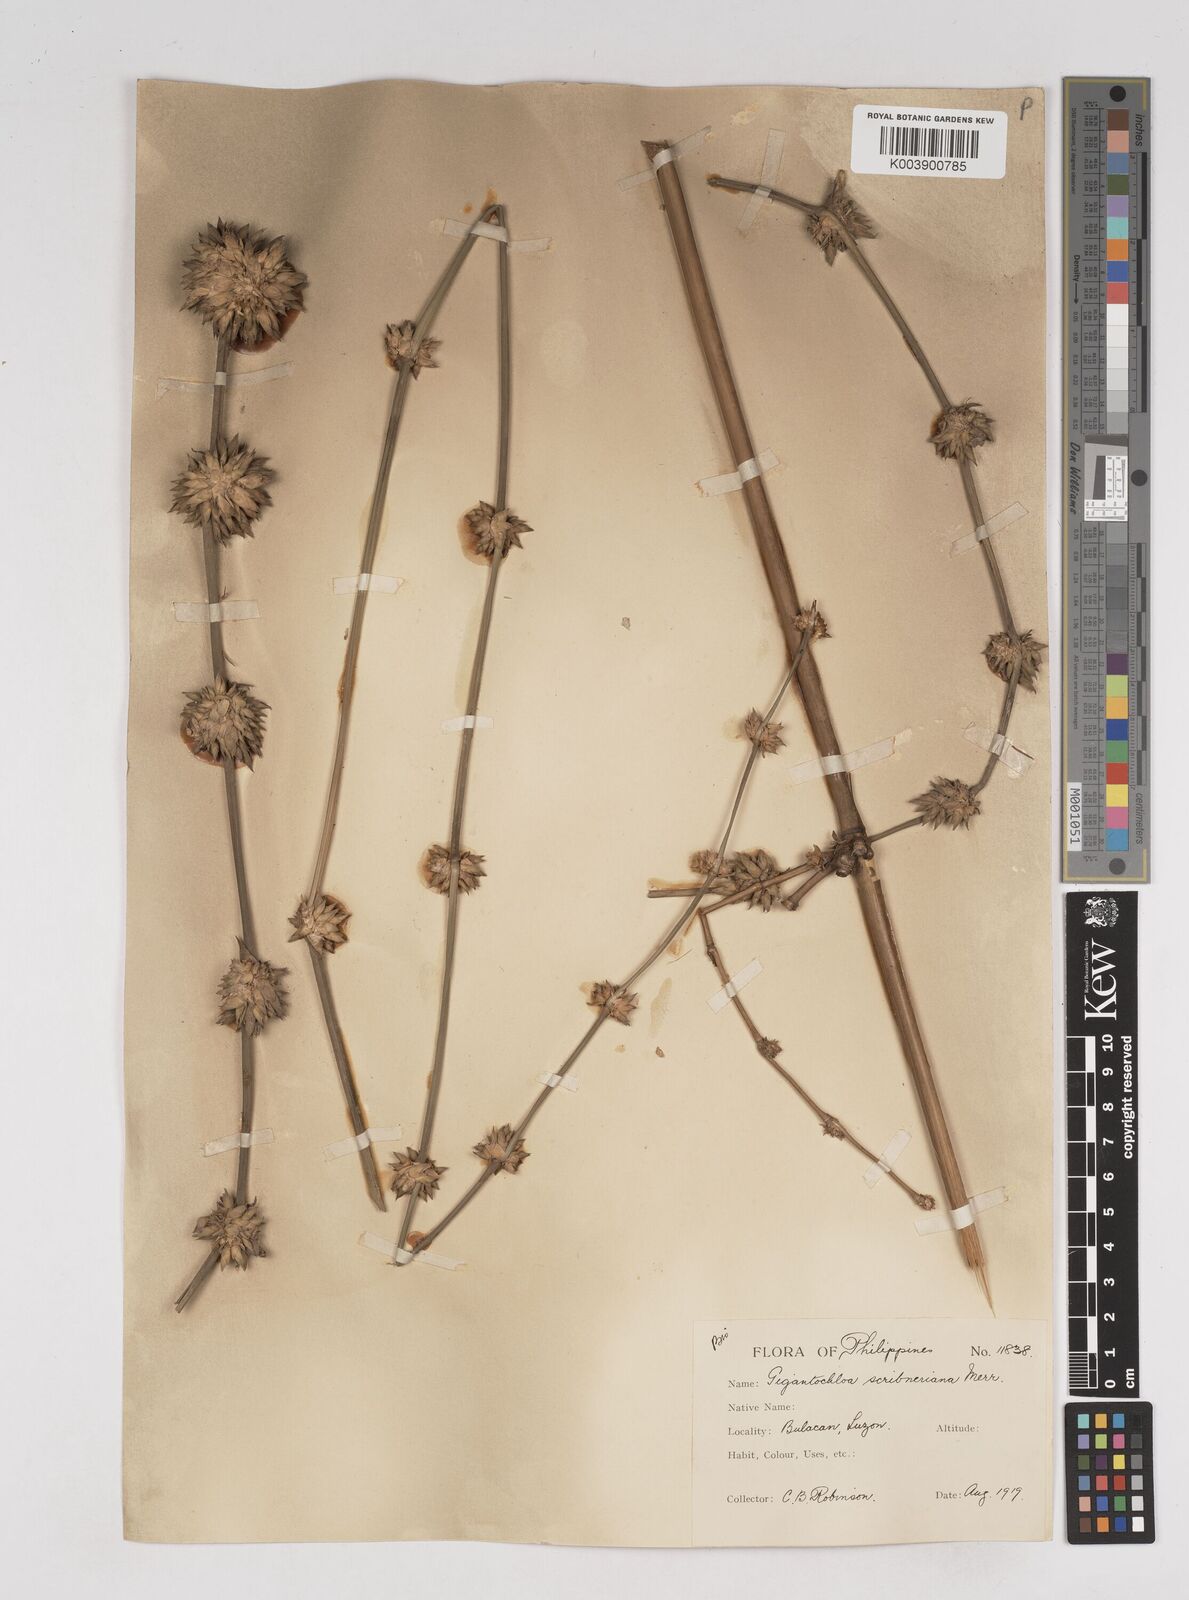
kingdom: Plantae
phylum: Tracheophyta
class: Liliopsida
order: Poales
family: Poaceae
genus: Gigantochloa
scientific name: Gigantochloa
